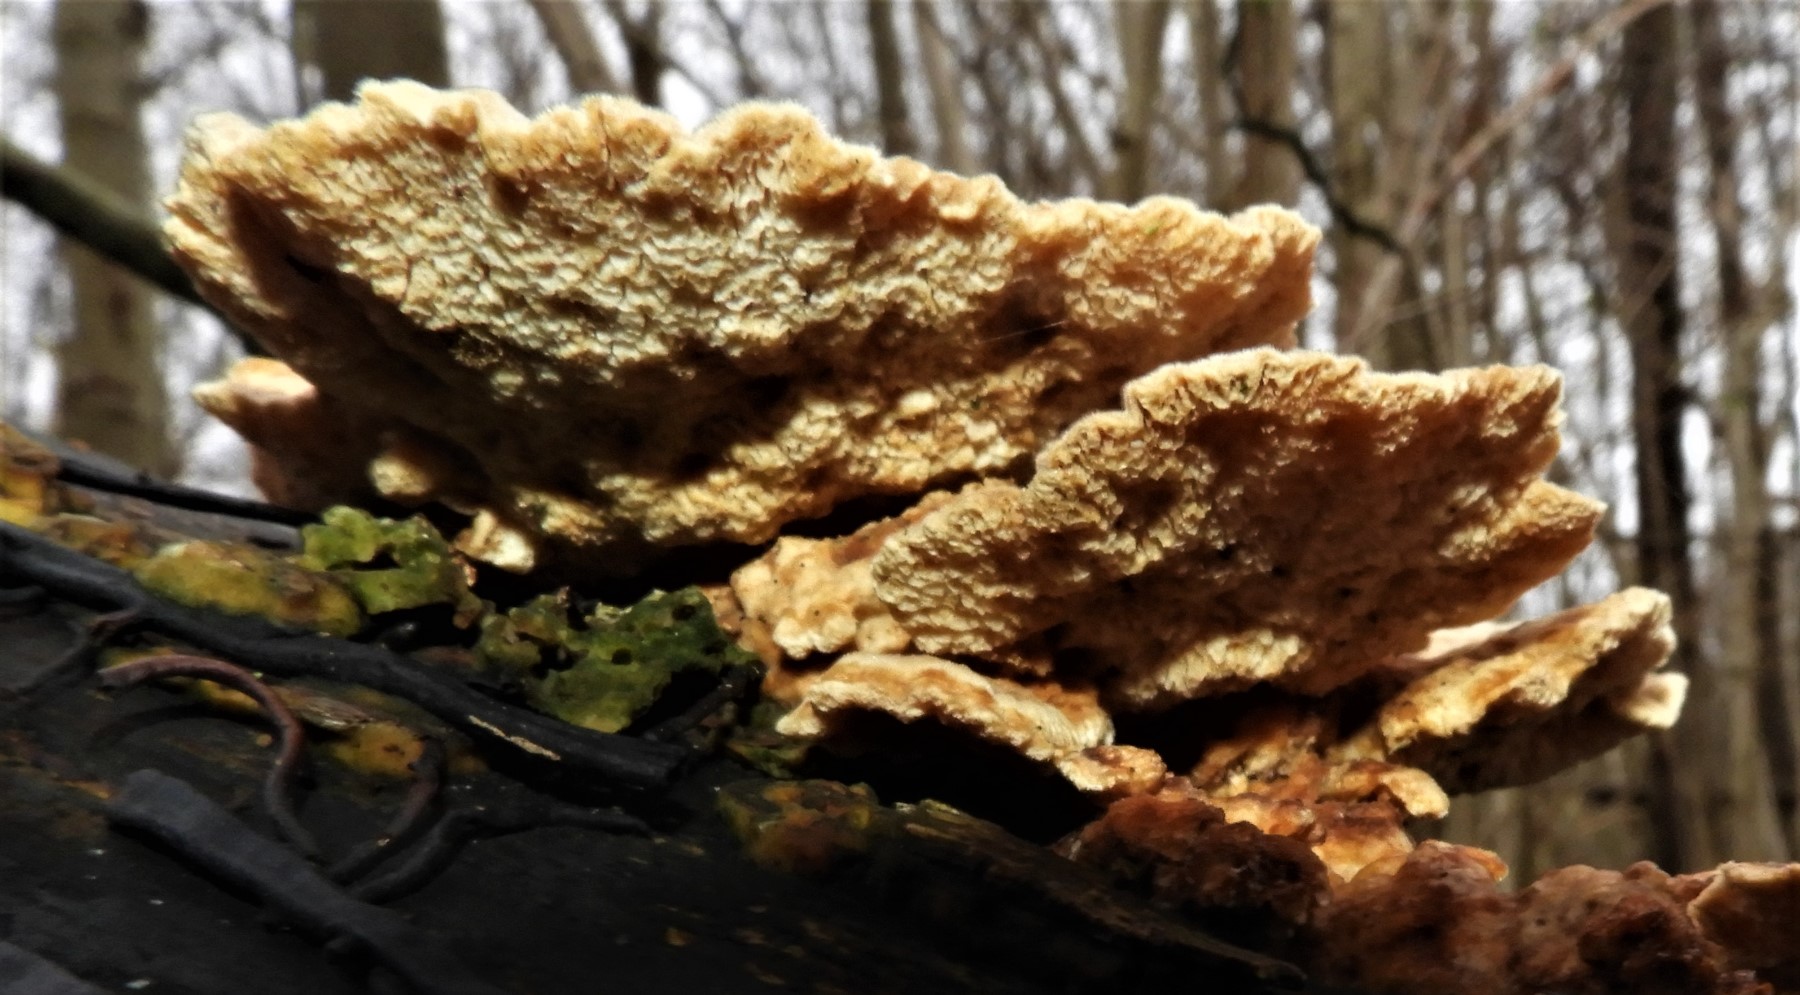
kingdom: Fungi
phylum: Basidiomycota
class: Agaricomycetes
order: Polyporales
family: Polyporaceae
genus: Trametes
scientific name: Trametes ochracea
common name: bæltet læderporesvamp
